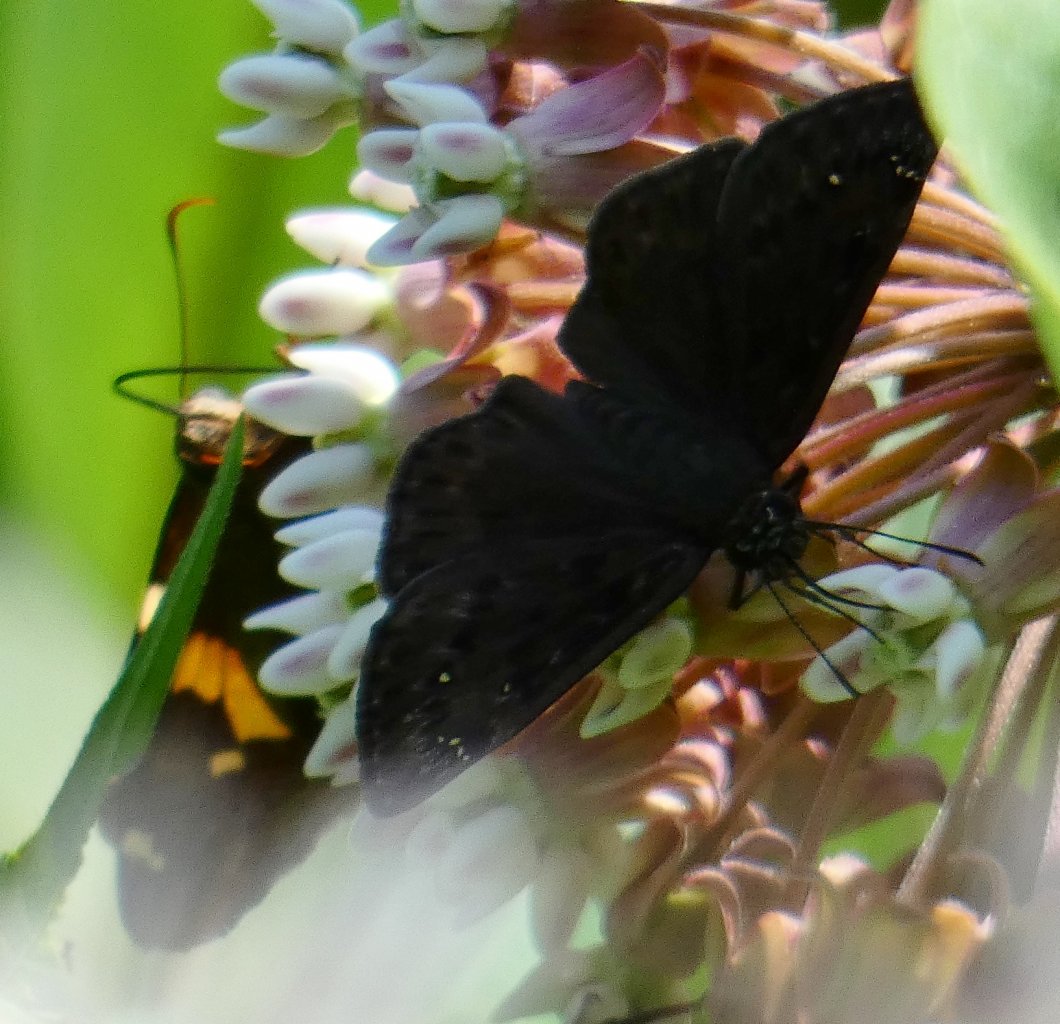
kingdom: Animalia
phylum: Arthropoda
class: Insecta
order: Lepidoptera
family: Hesperiidae
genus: Pholisora
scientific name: Pholisora catullus
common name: Common Sootywing
